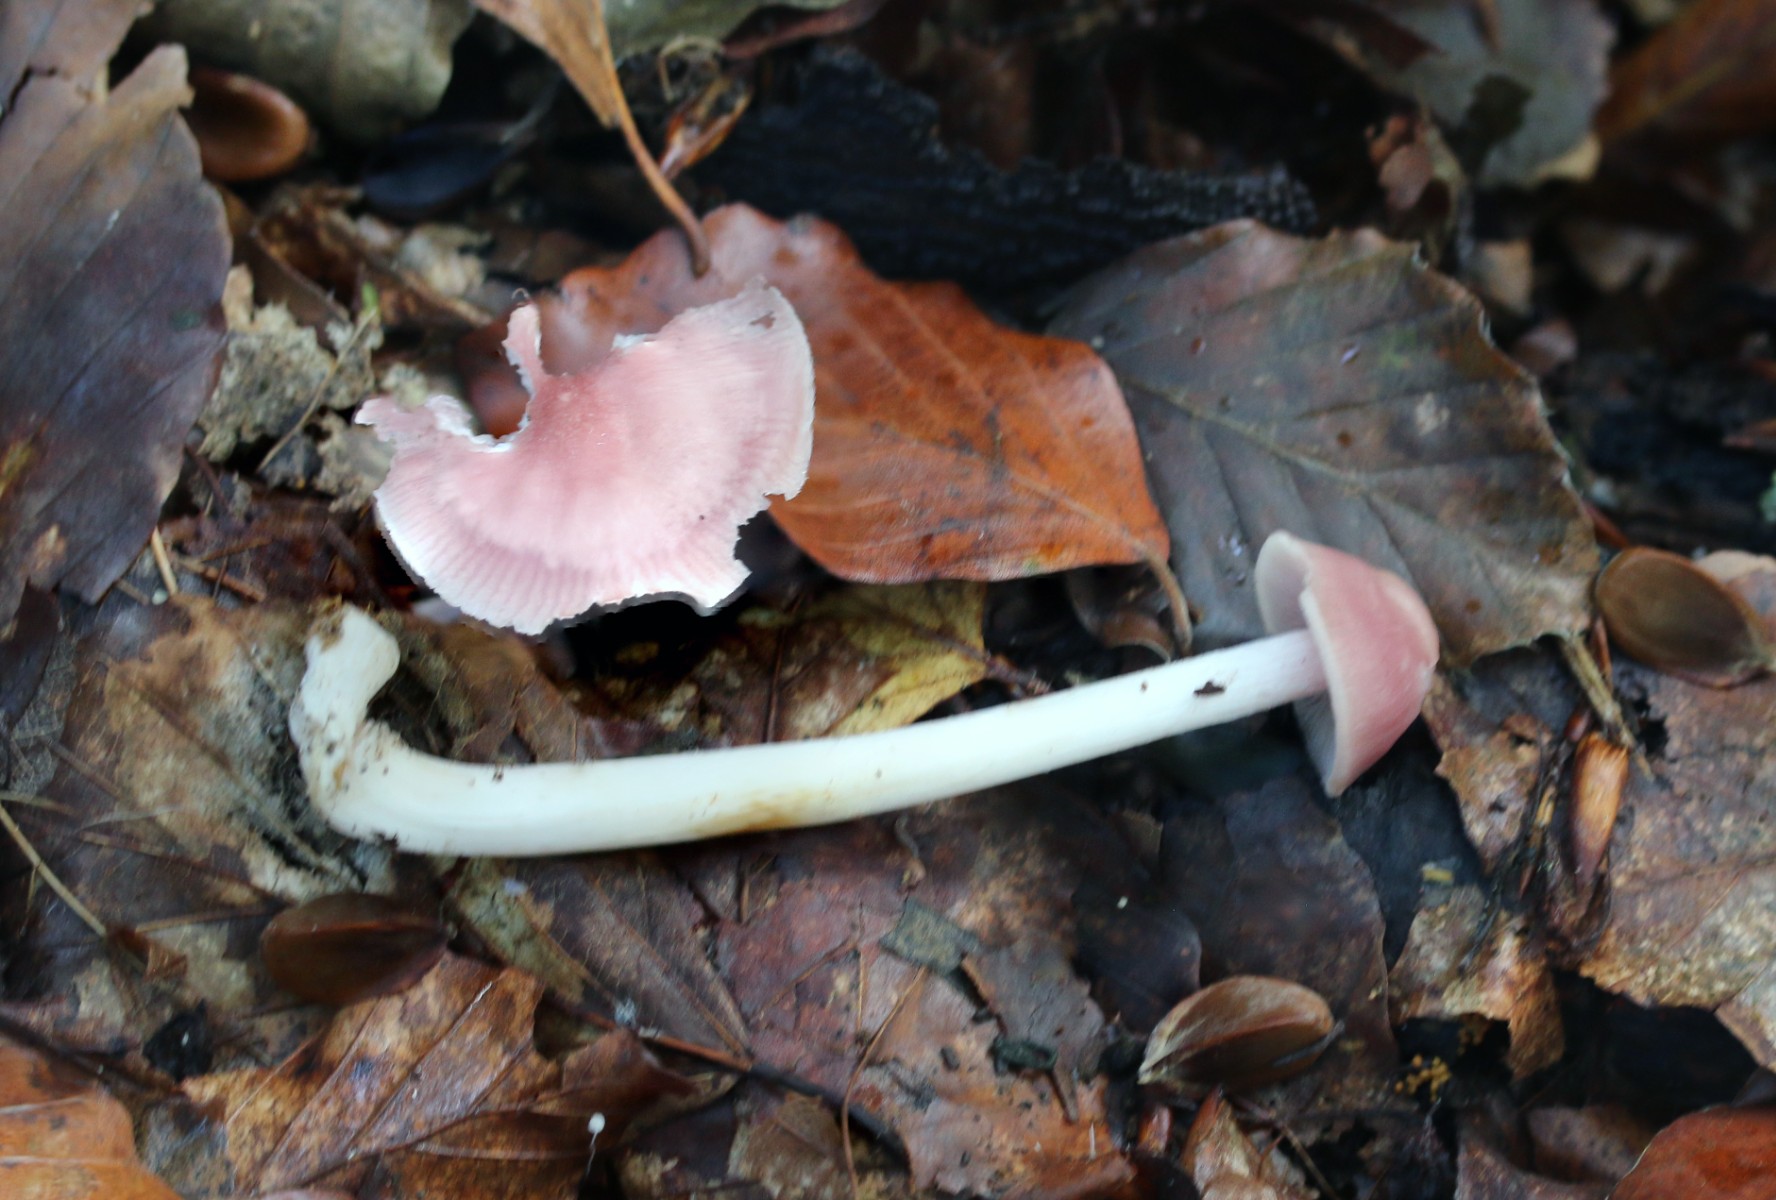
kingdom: Fungi
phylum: Basidiomycota
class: Agaricomycetes
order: Agaricales
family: Mycenaceae
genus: Mycena
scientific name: Mycena rosea
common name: rosa huesvamp
